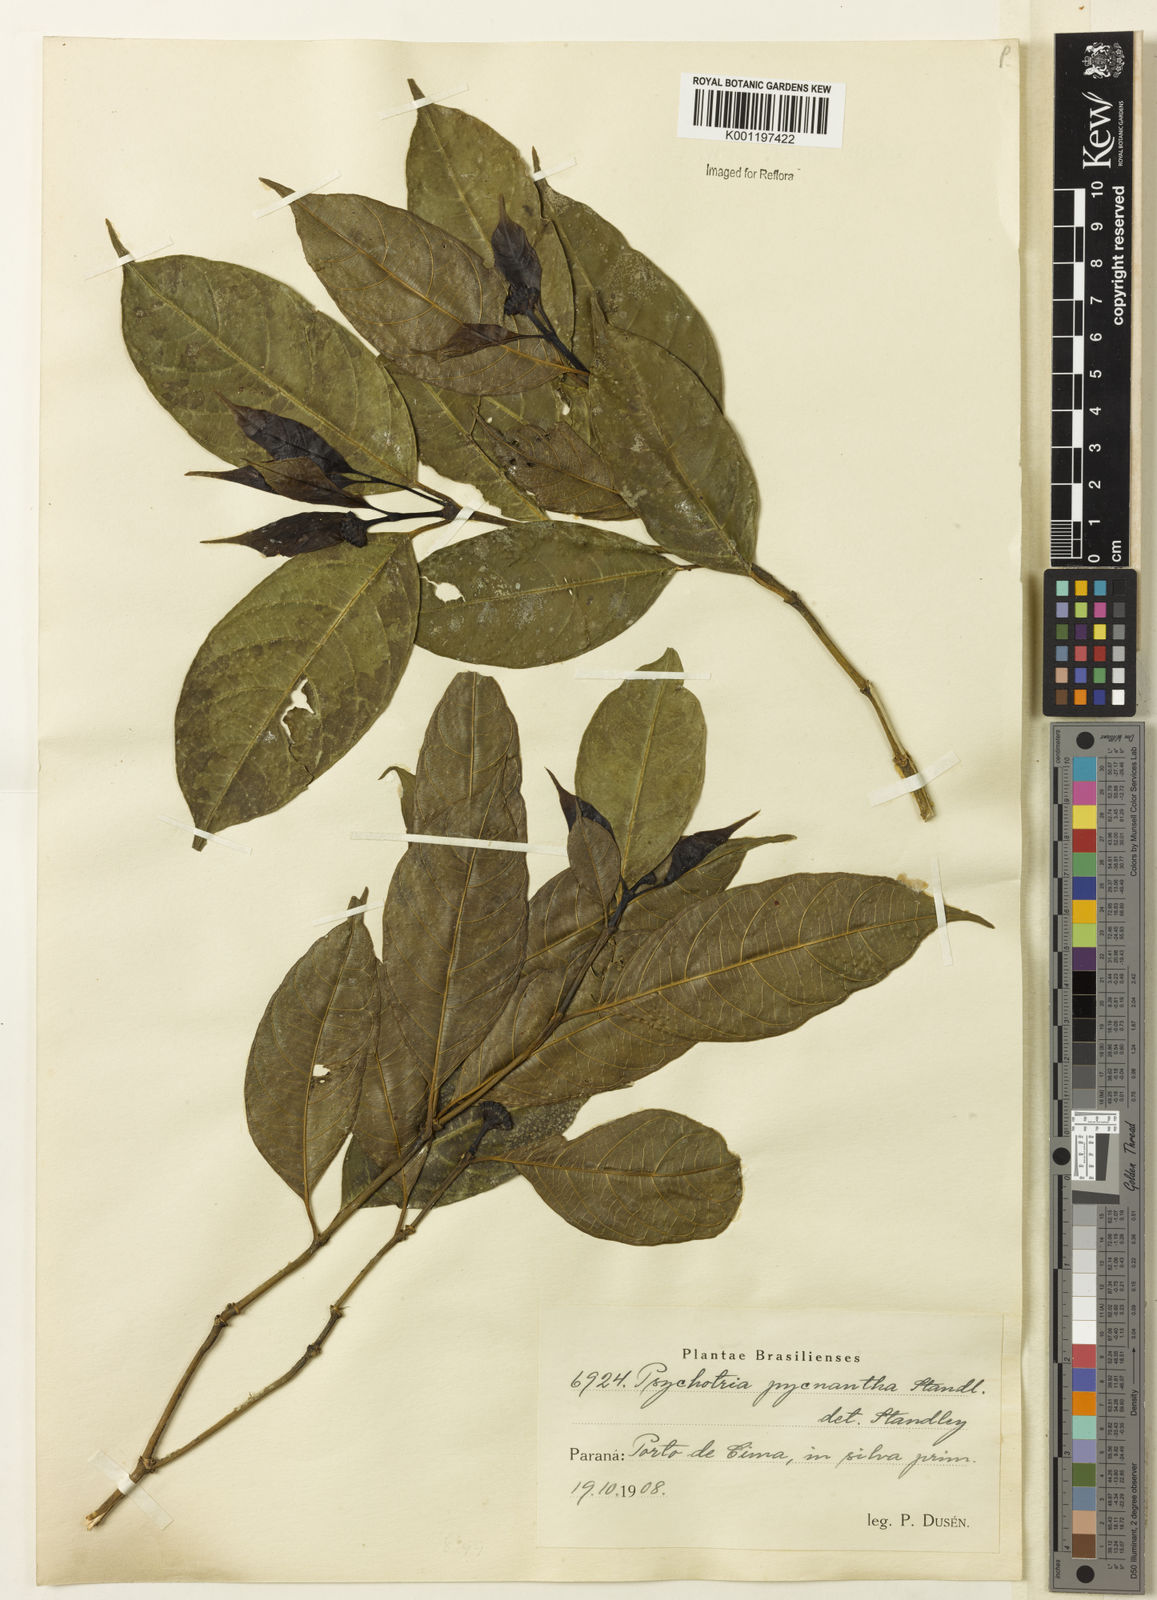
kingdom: Plantae
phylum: Tracheophyta
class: Magnoliopsida
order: Gentianales
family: Rubiaceae
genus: Psychotria
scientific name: Psychotria
